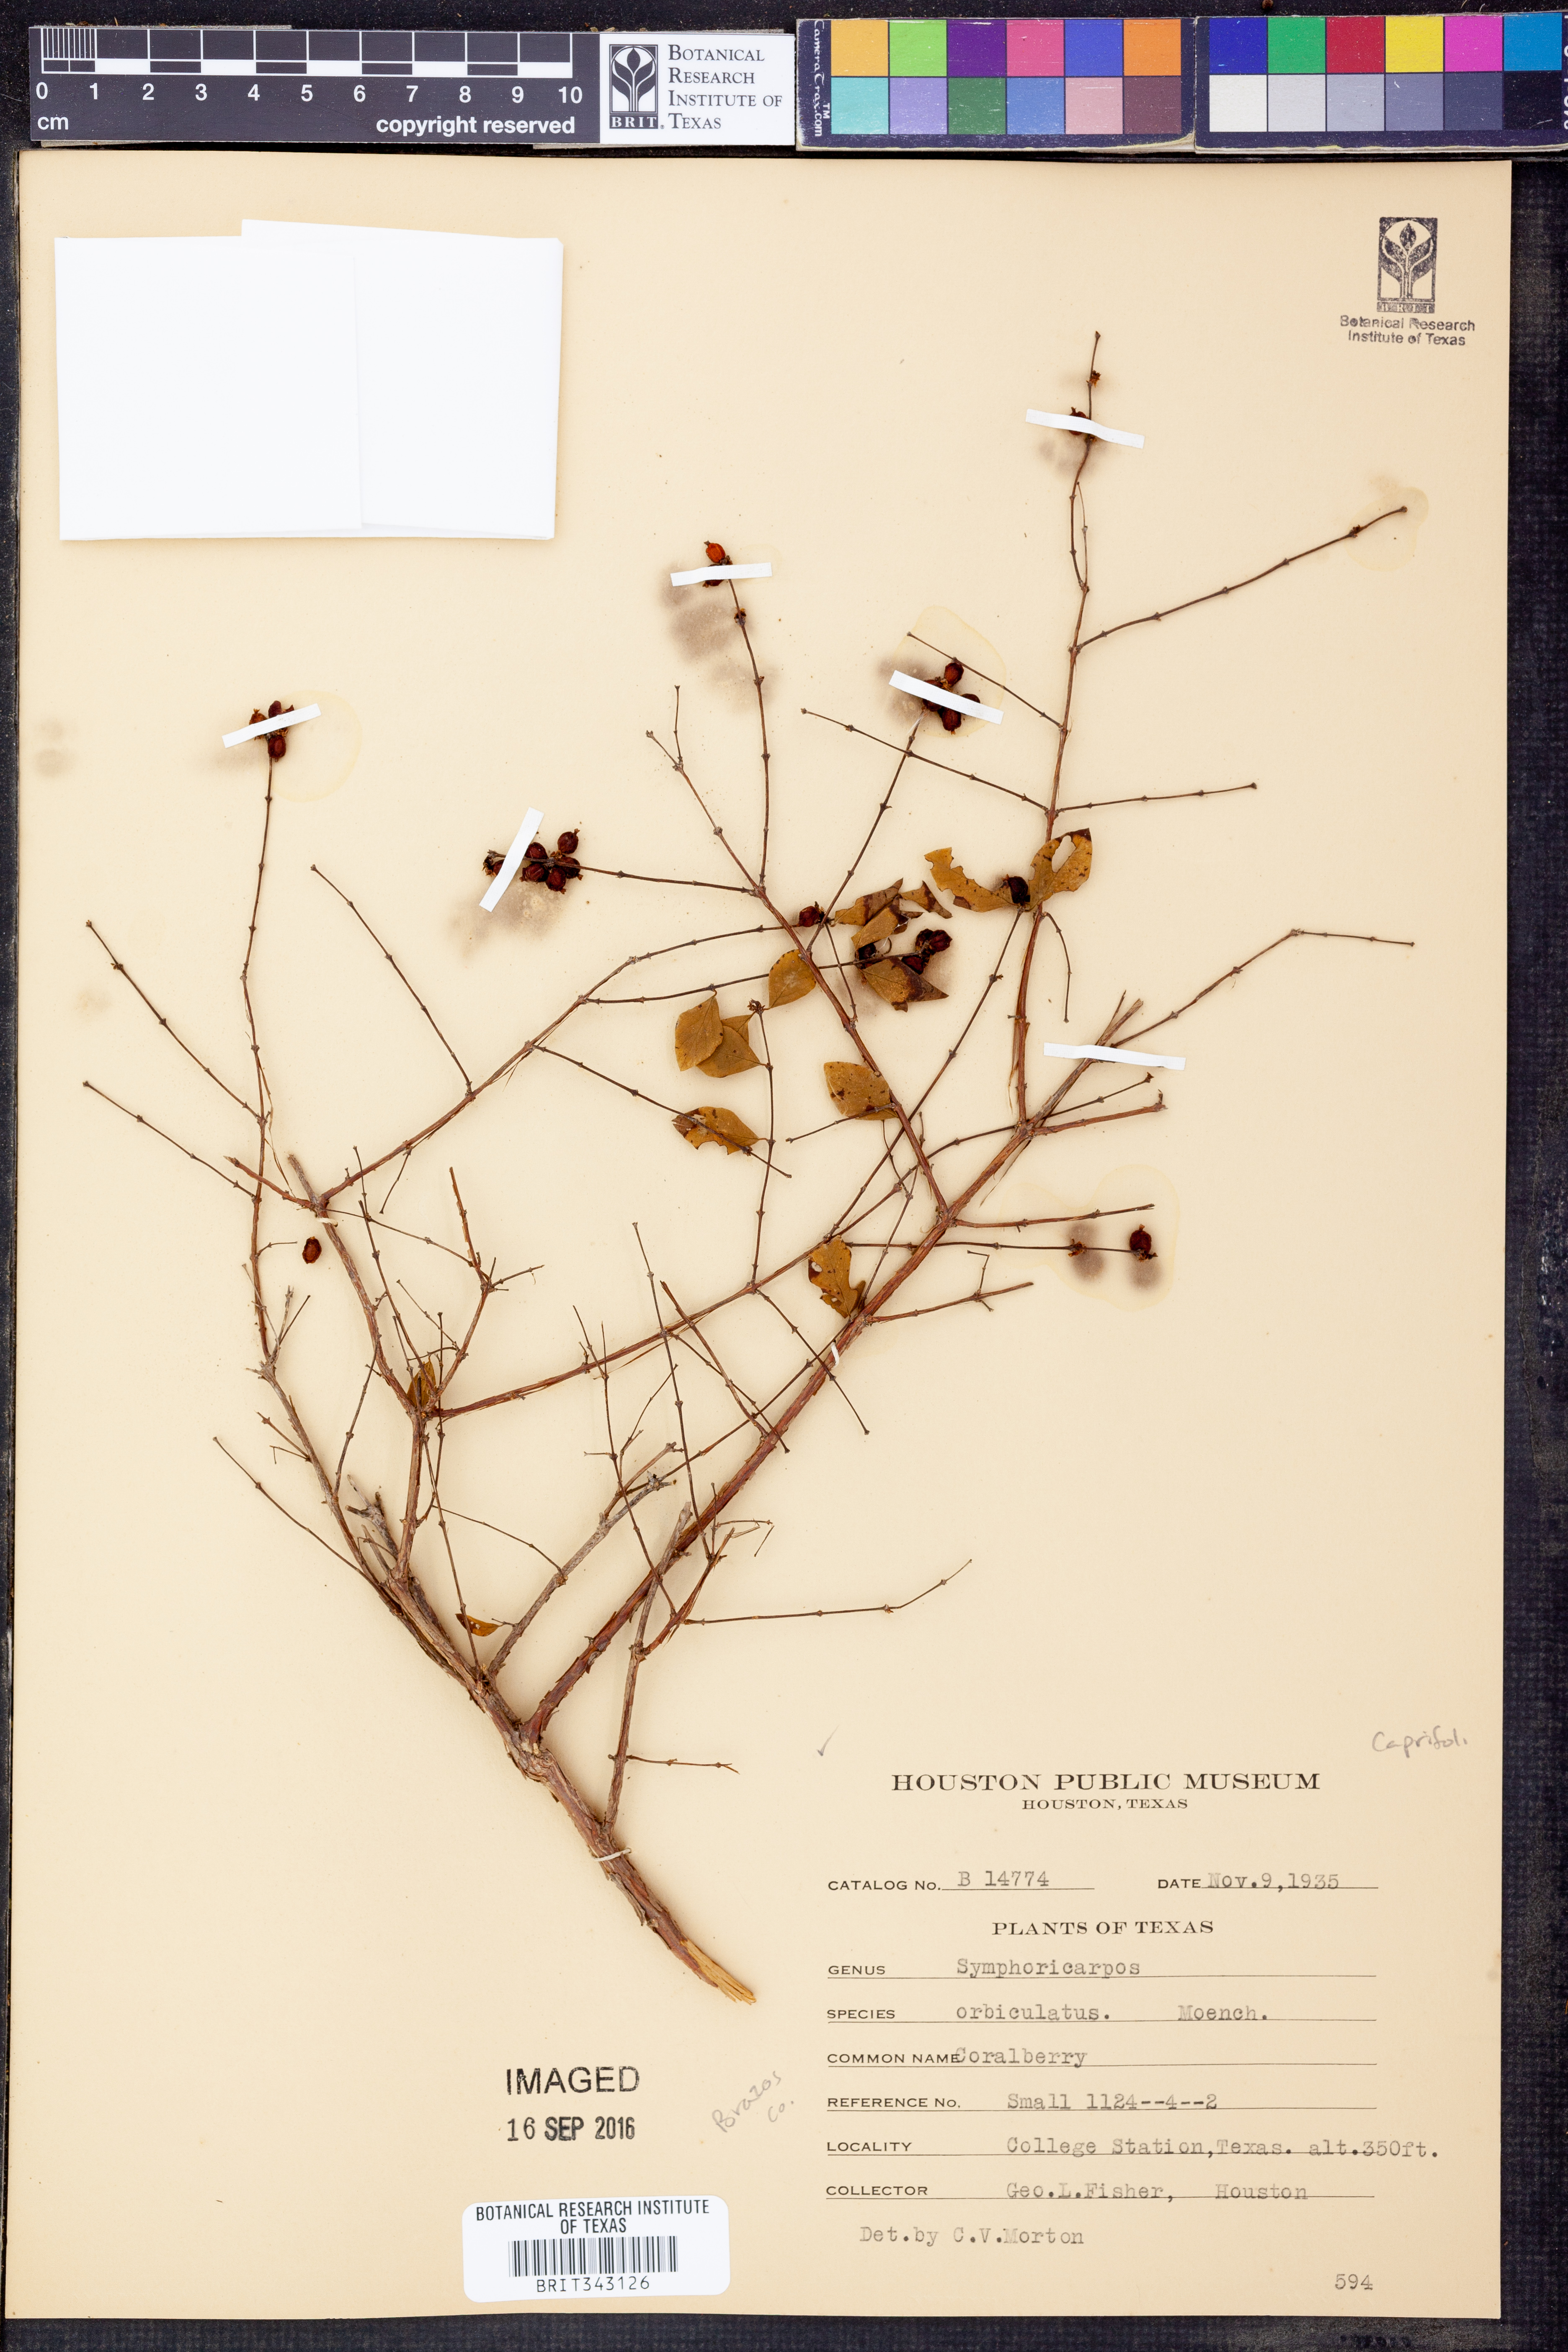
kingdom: Plantae
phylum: Tracheophyta
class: Magnoliopsida
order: Dipsacales
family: Caprifoliaceae
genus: Symphoricarpos
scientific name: Symphoricarpos orbiculatus
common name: Coralberry
